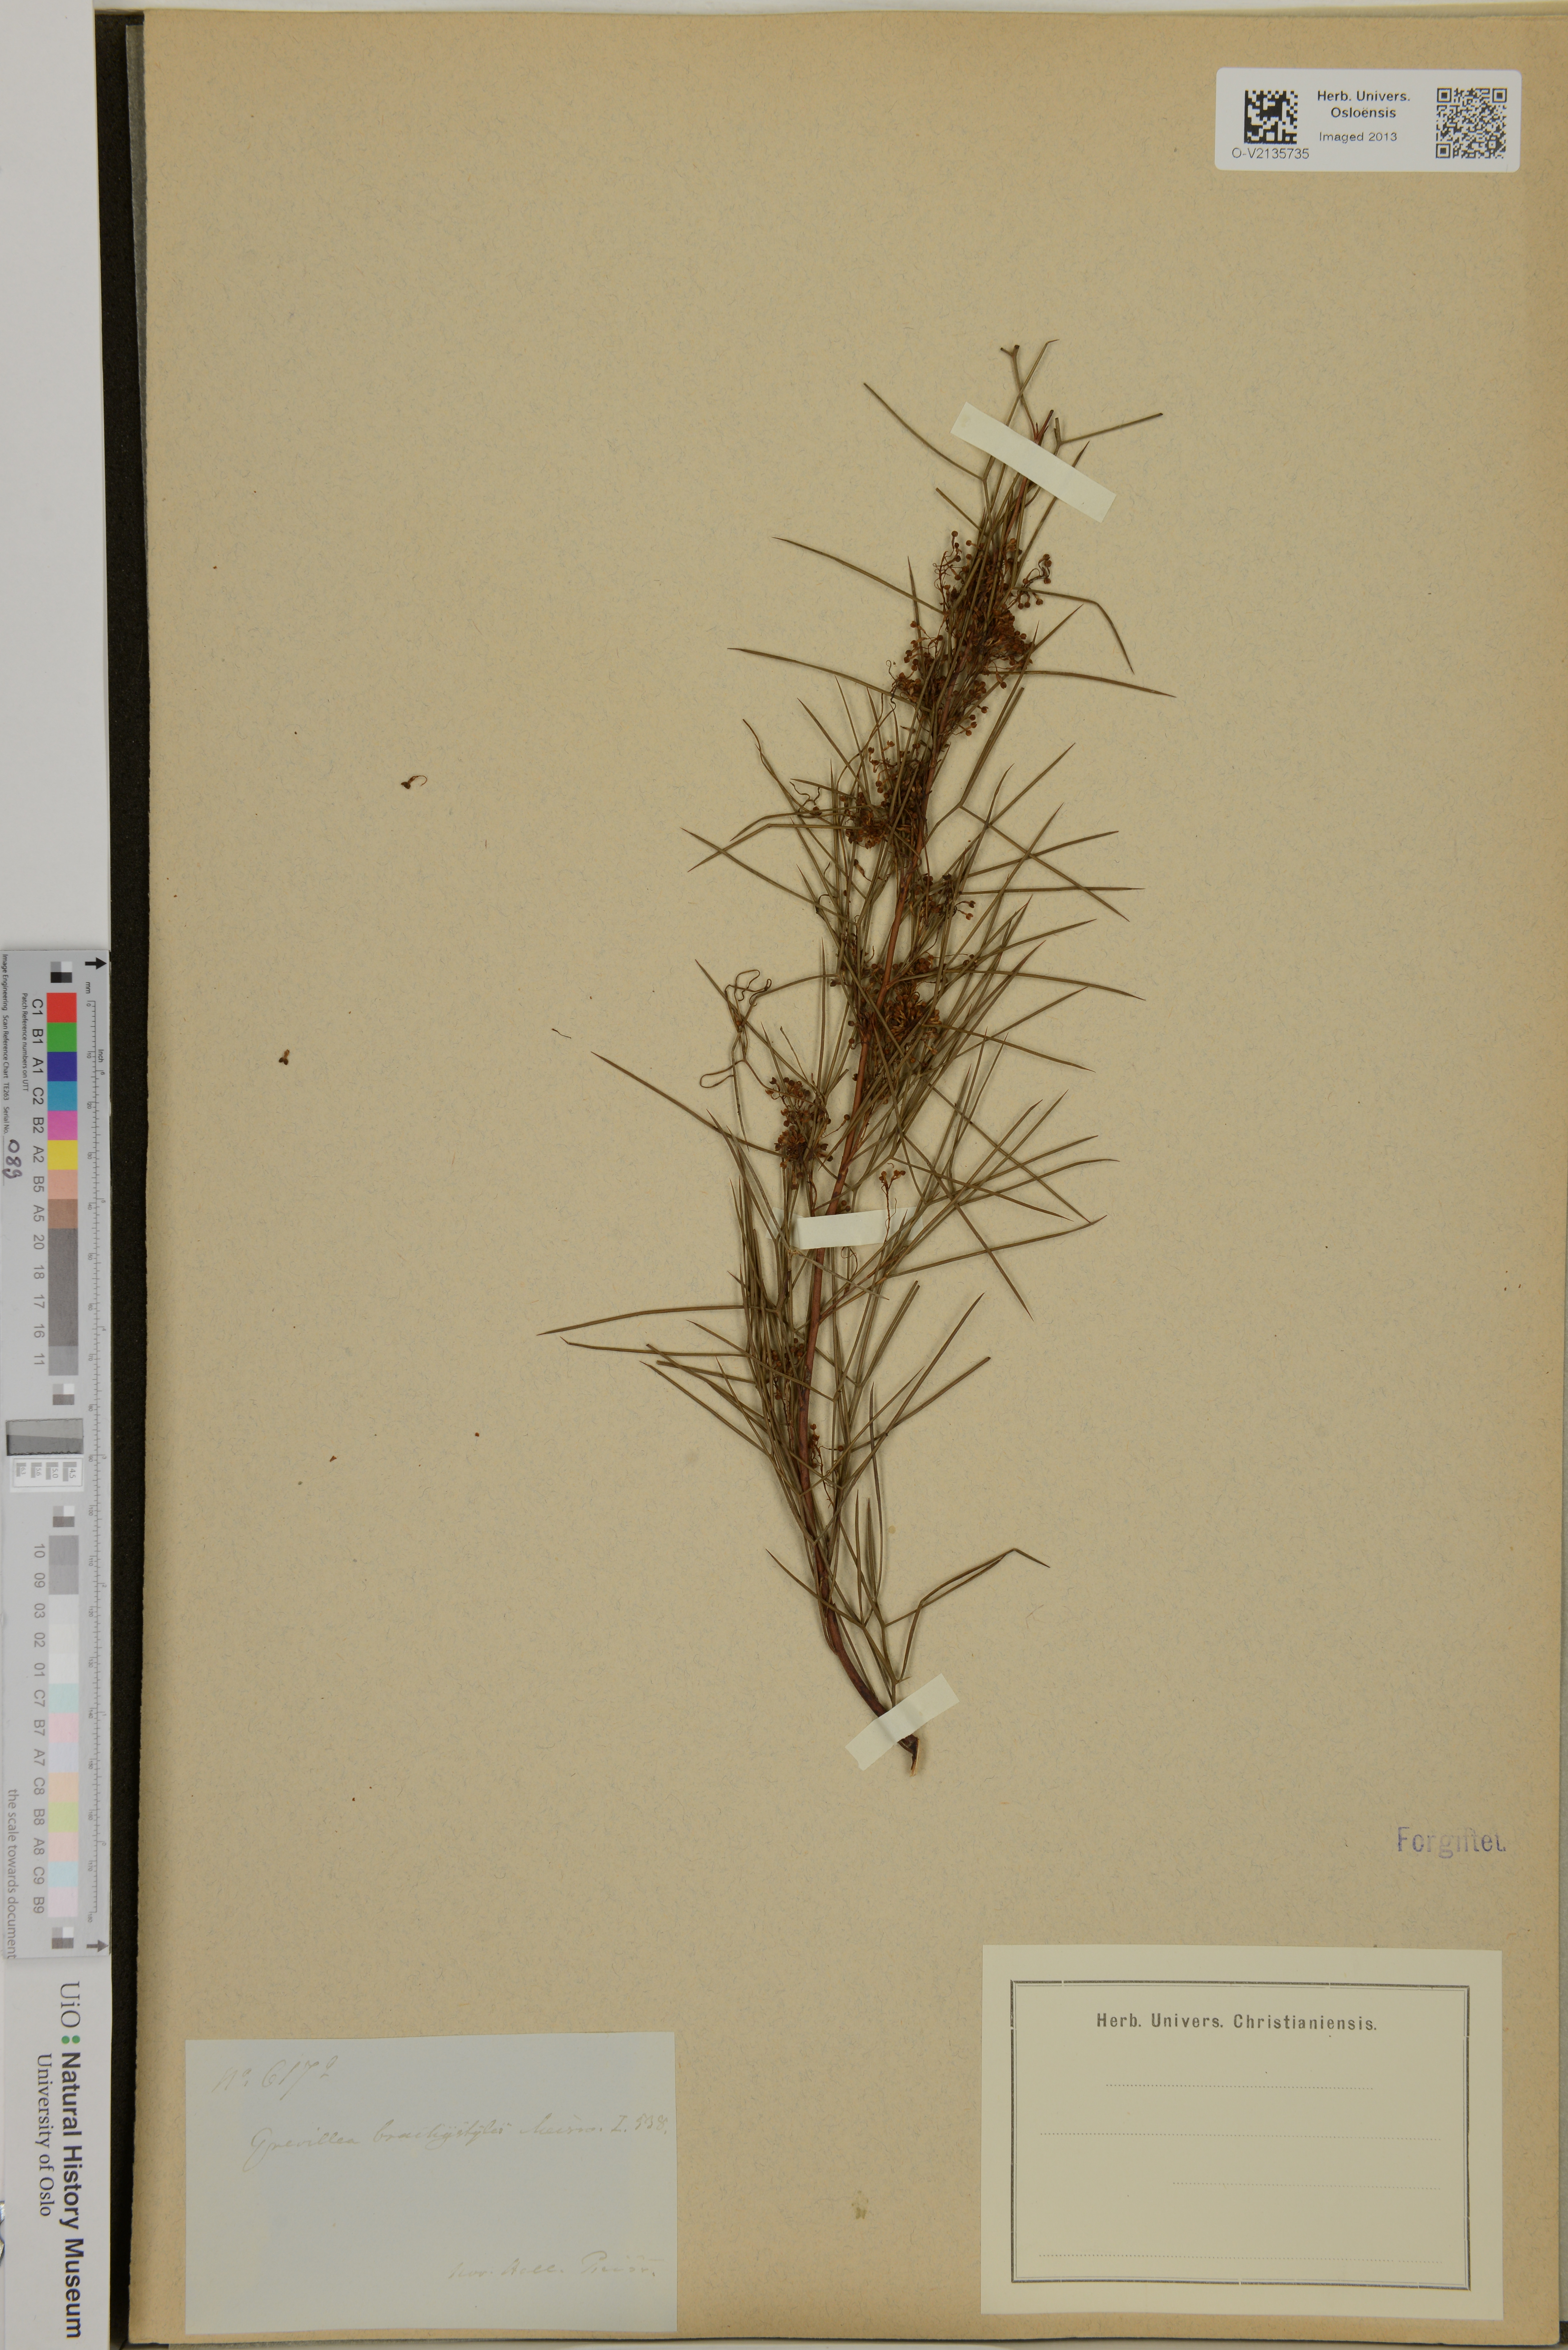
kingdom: Plantae
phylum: Tracheophyta
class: Magnoliopsida
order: Proteales
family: Proteaceae
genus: Grevillea
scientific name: Grevillea brachystylis
